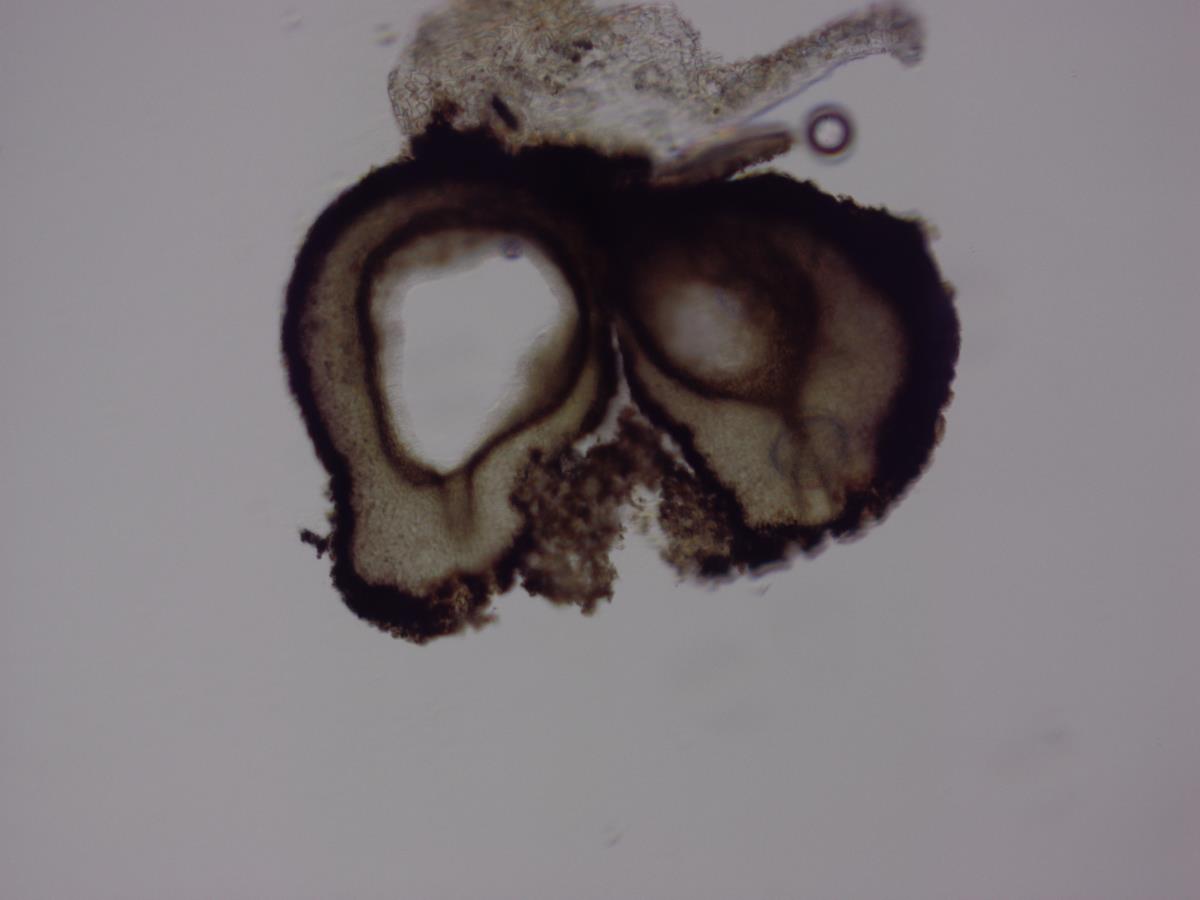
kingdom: Fungi
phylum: Ascomycota
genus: Waydora
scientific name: Waydora typica
